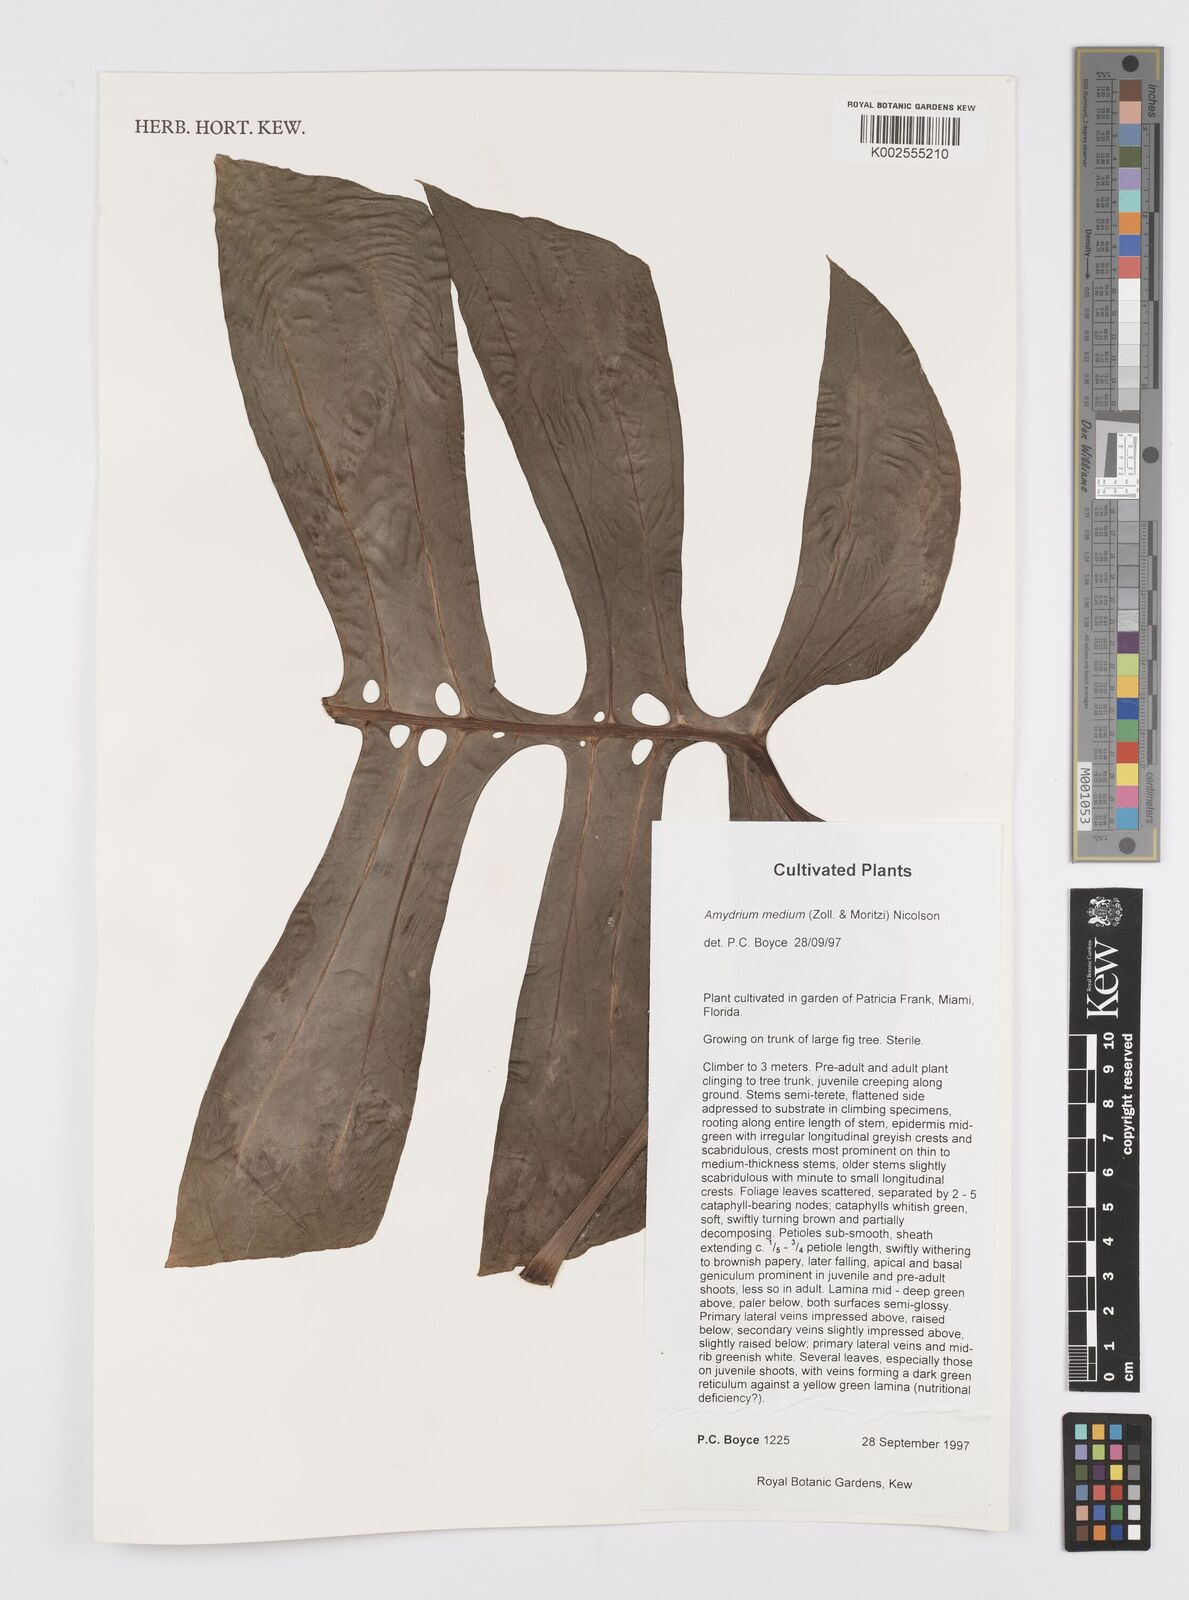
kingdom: Plantae
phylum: Tracheophyta
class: Liliopsida
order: Alismatales
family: Araceae
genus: Amydrium
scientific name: Amydrium medium
